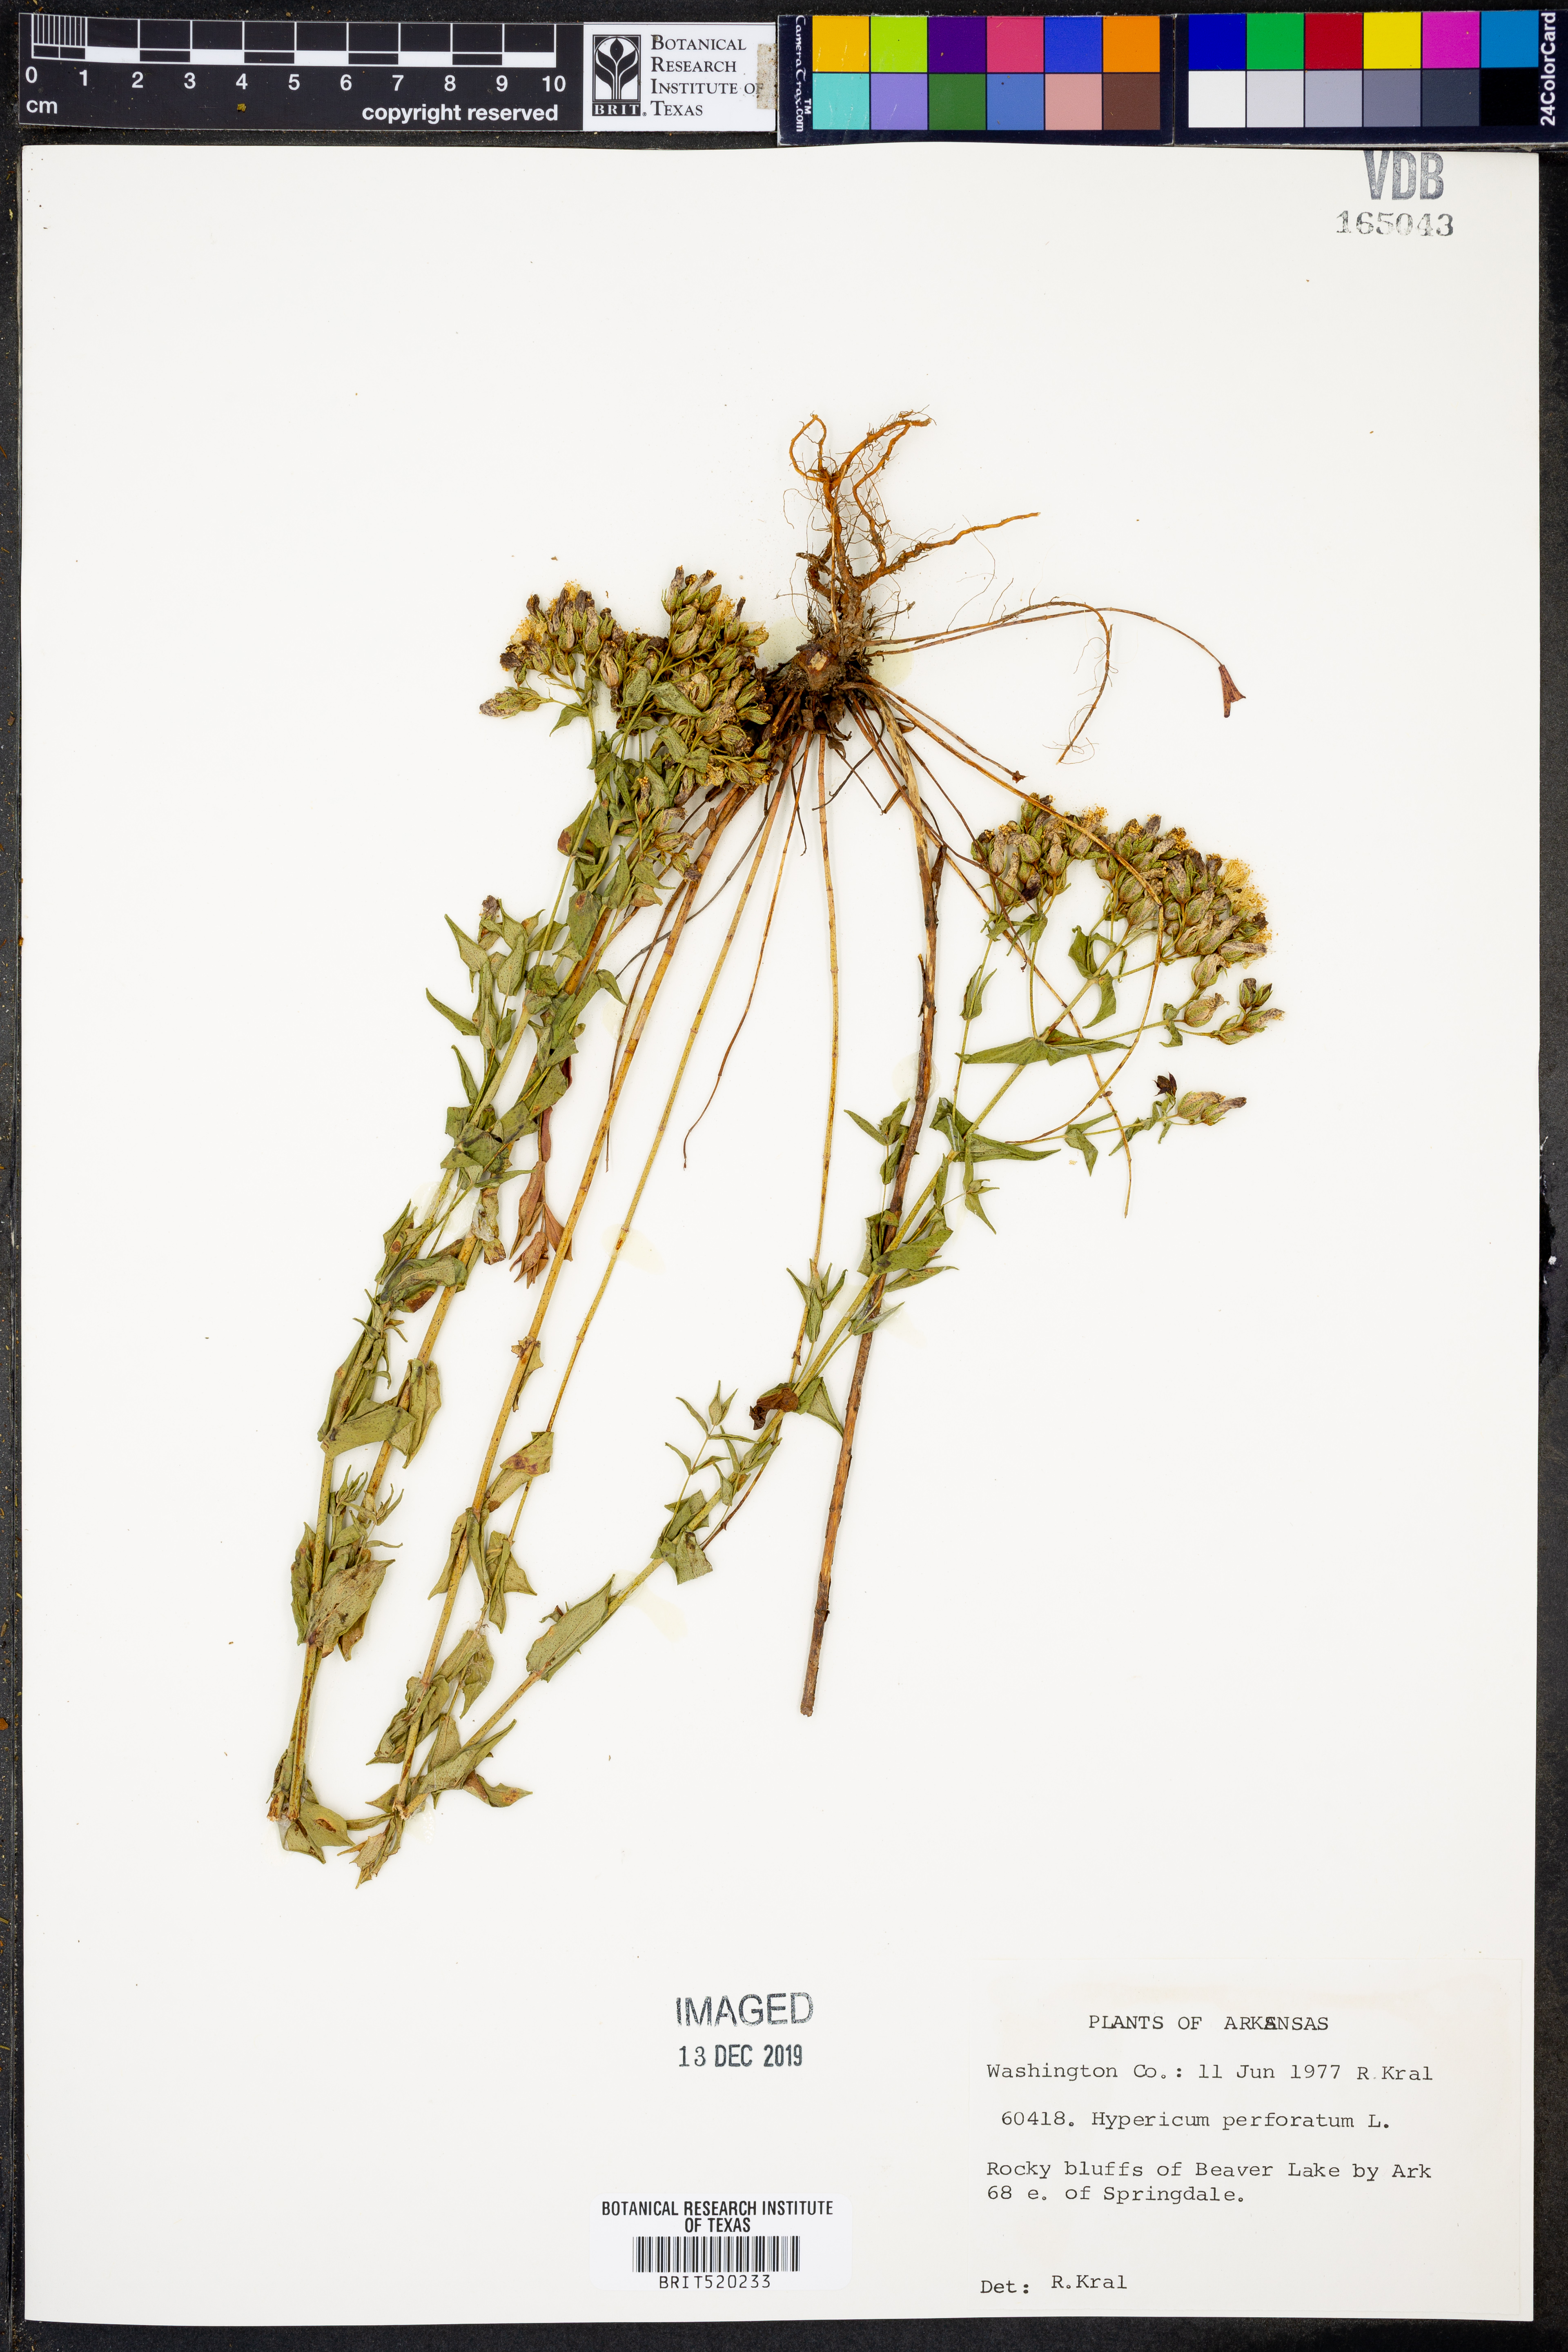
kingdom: Plantae
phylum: Tracheophyta
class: Magnoliopsida
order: Malpighiales
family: Hypericaceae
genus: Hypericum
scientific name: Hypericum perforatum
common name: Common st. johnswort
